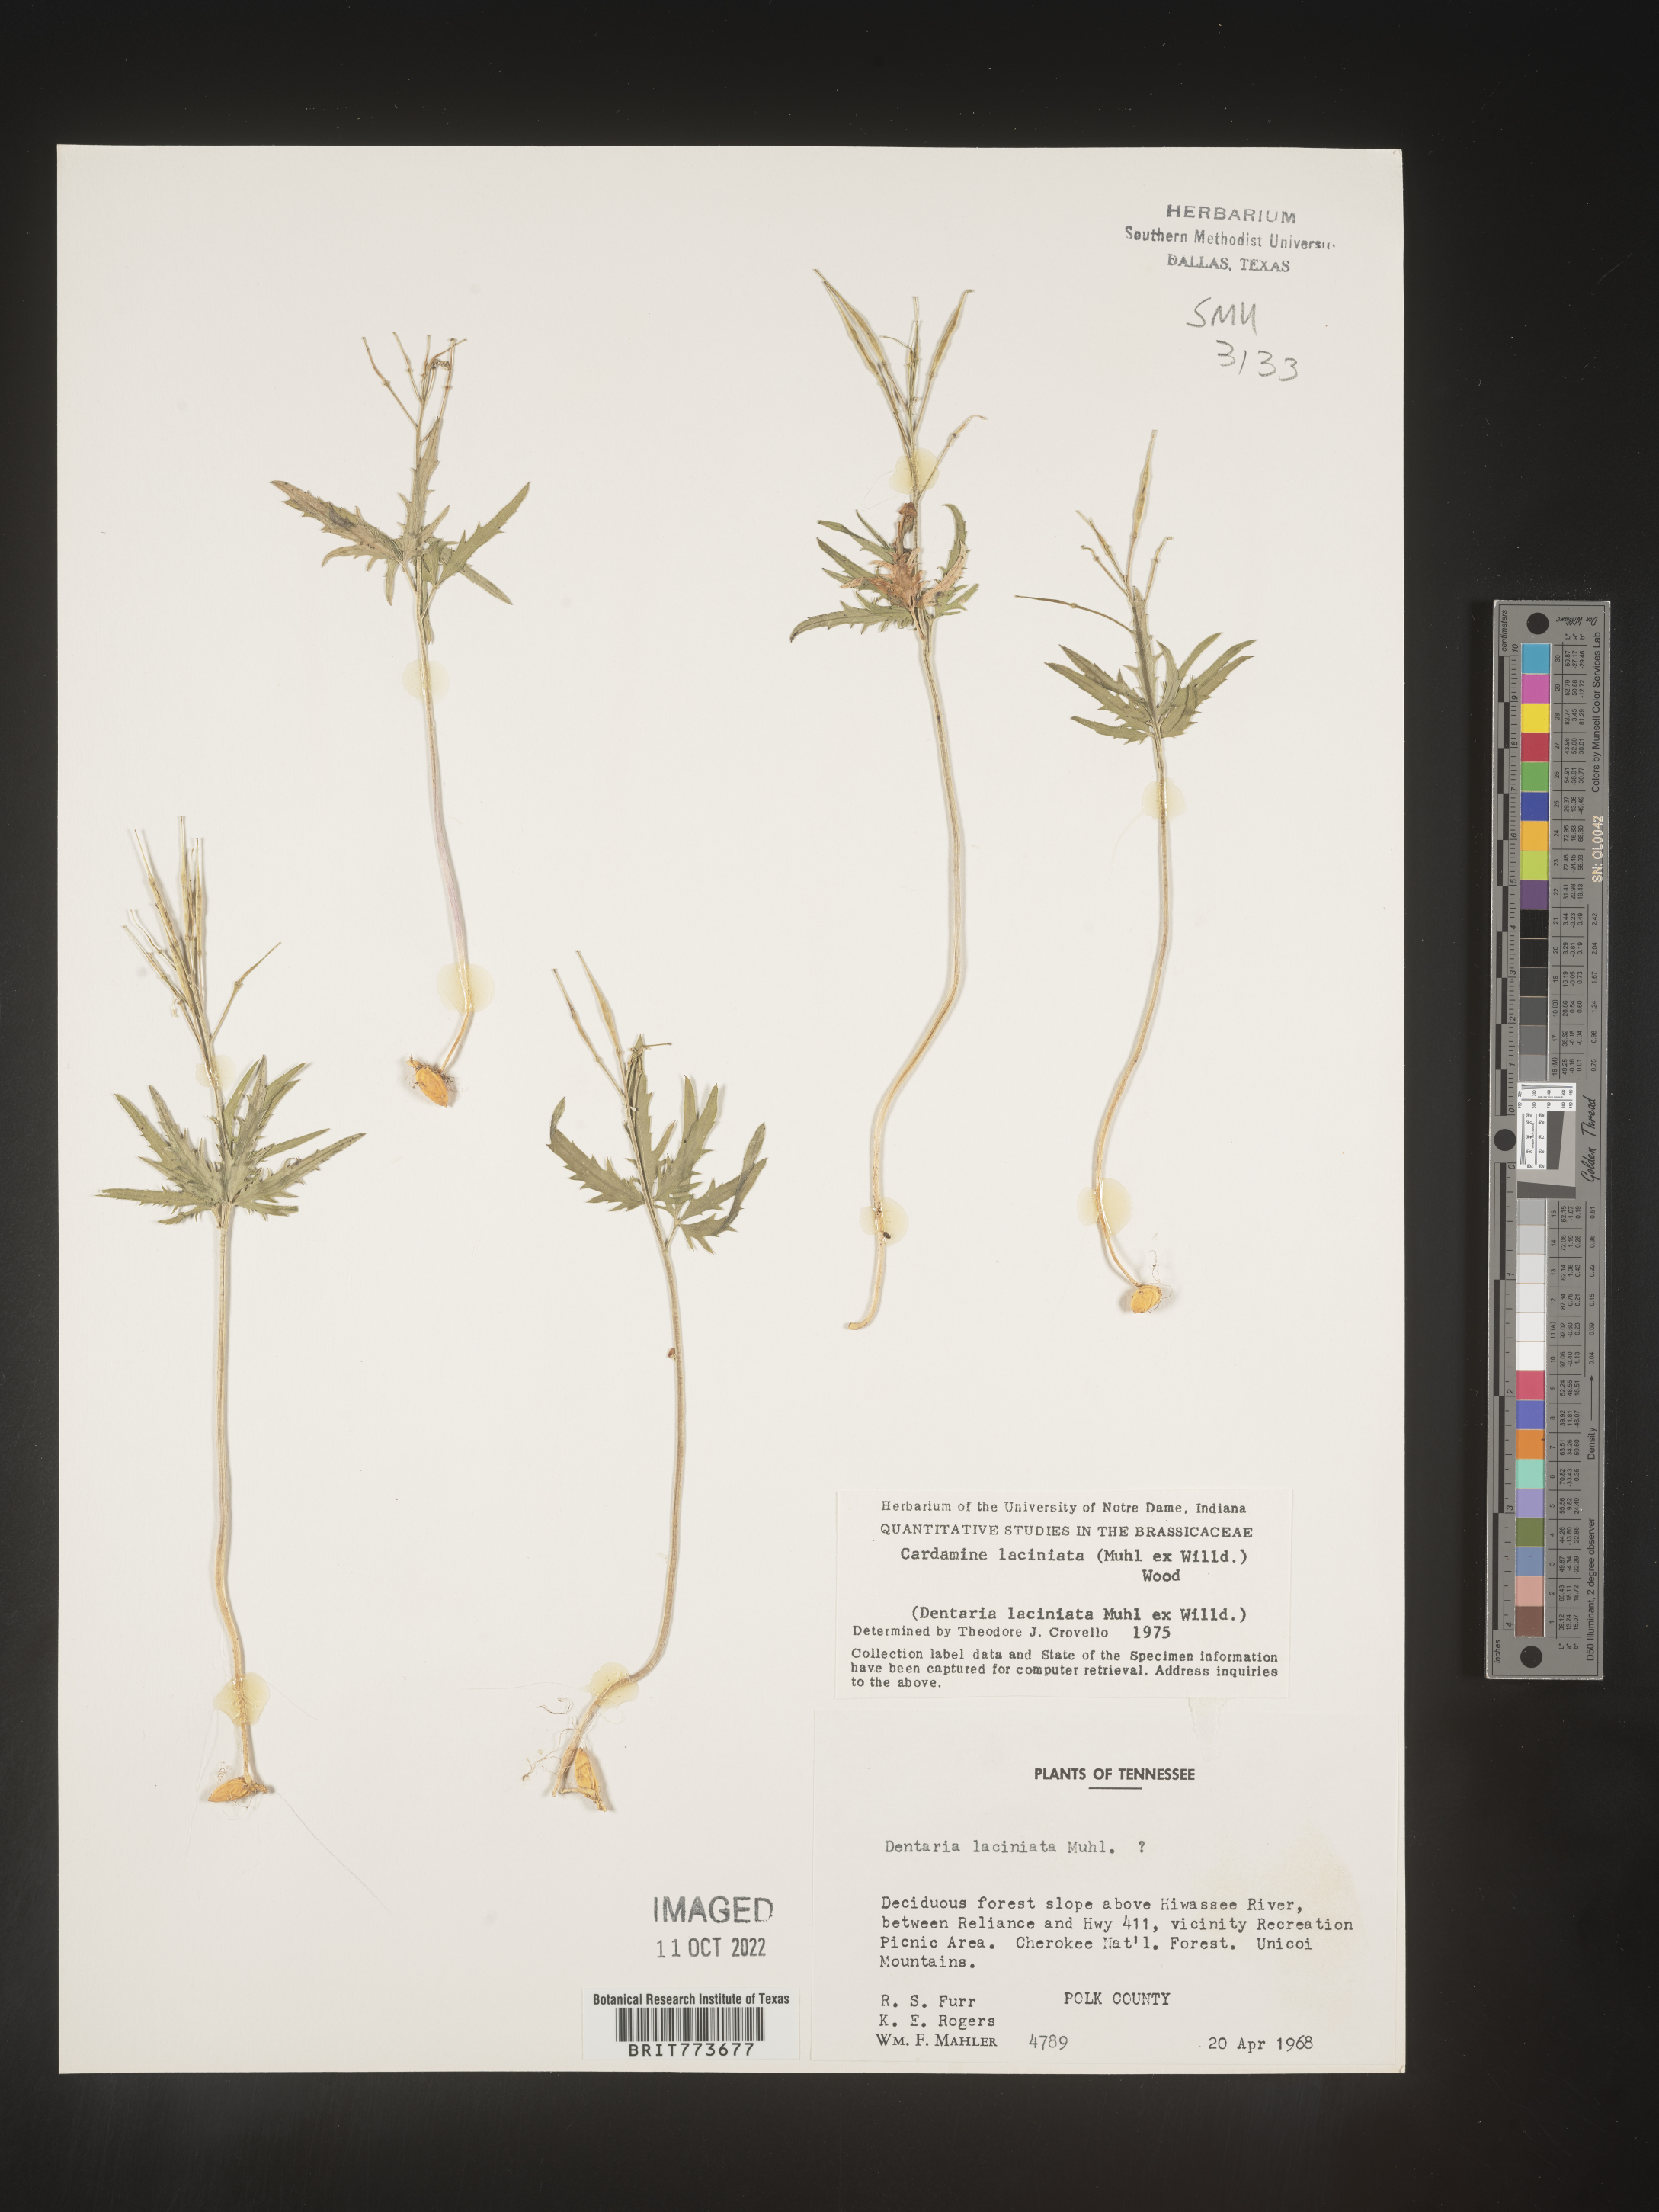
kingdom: Plantae
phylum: Tracheophyta
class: Magnoliopsida
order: Brassicales
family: Brassicaceae
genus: Rorippa
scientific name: Rorippa laciniata
